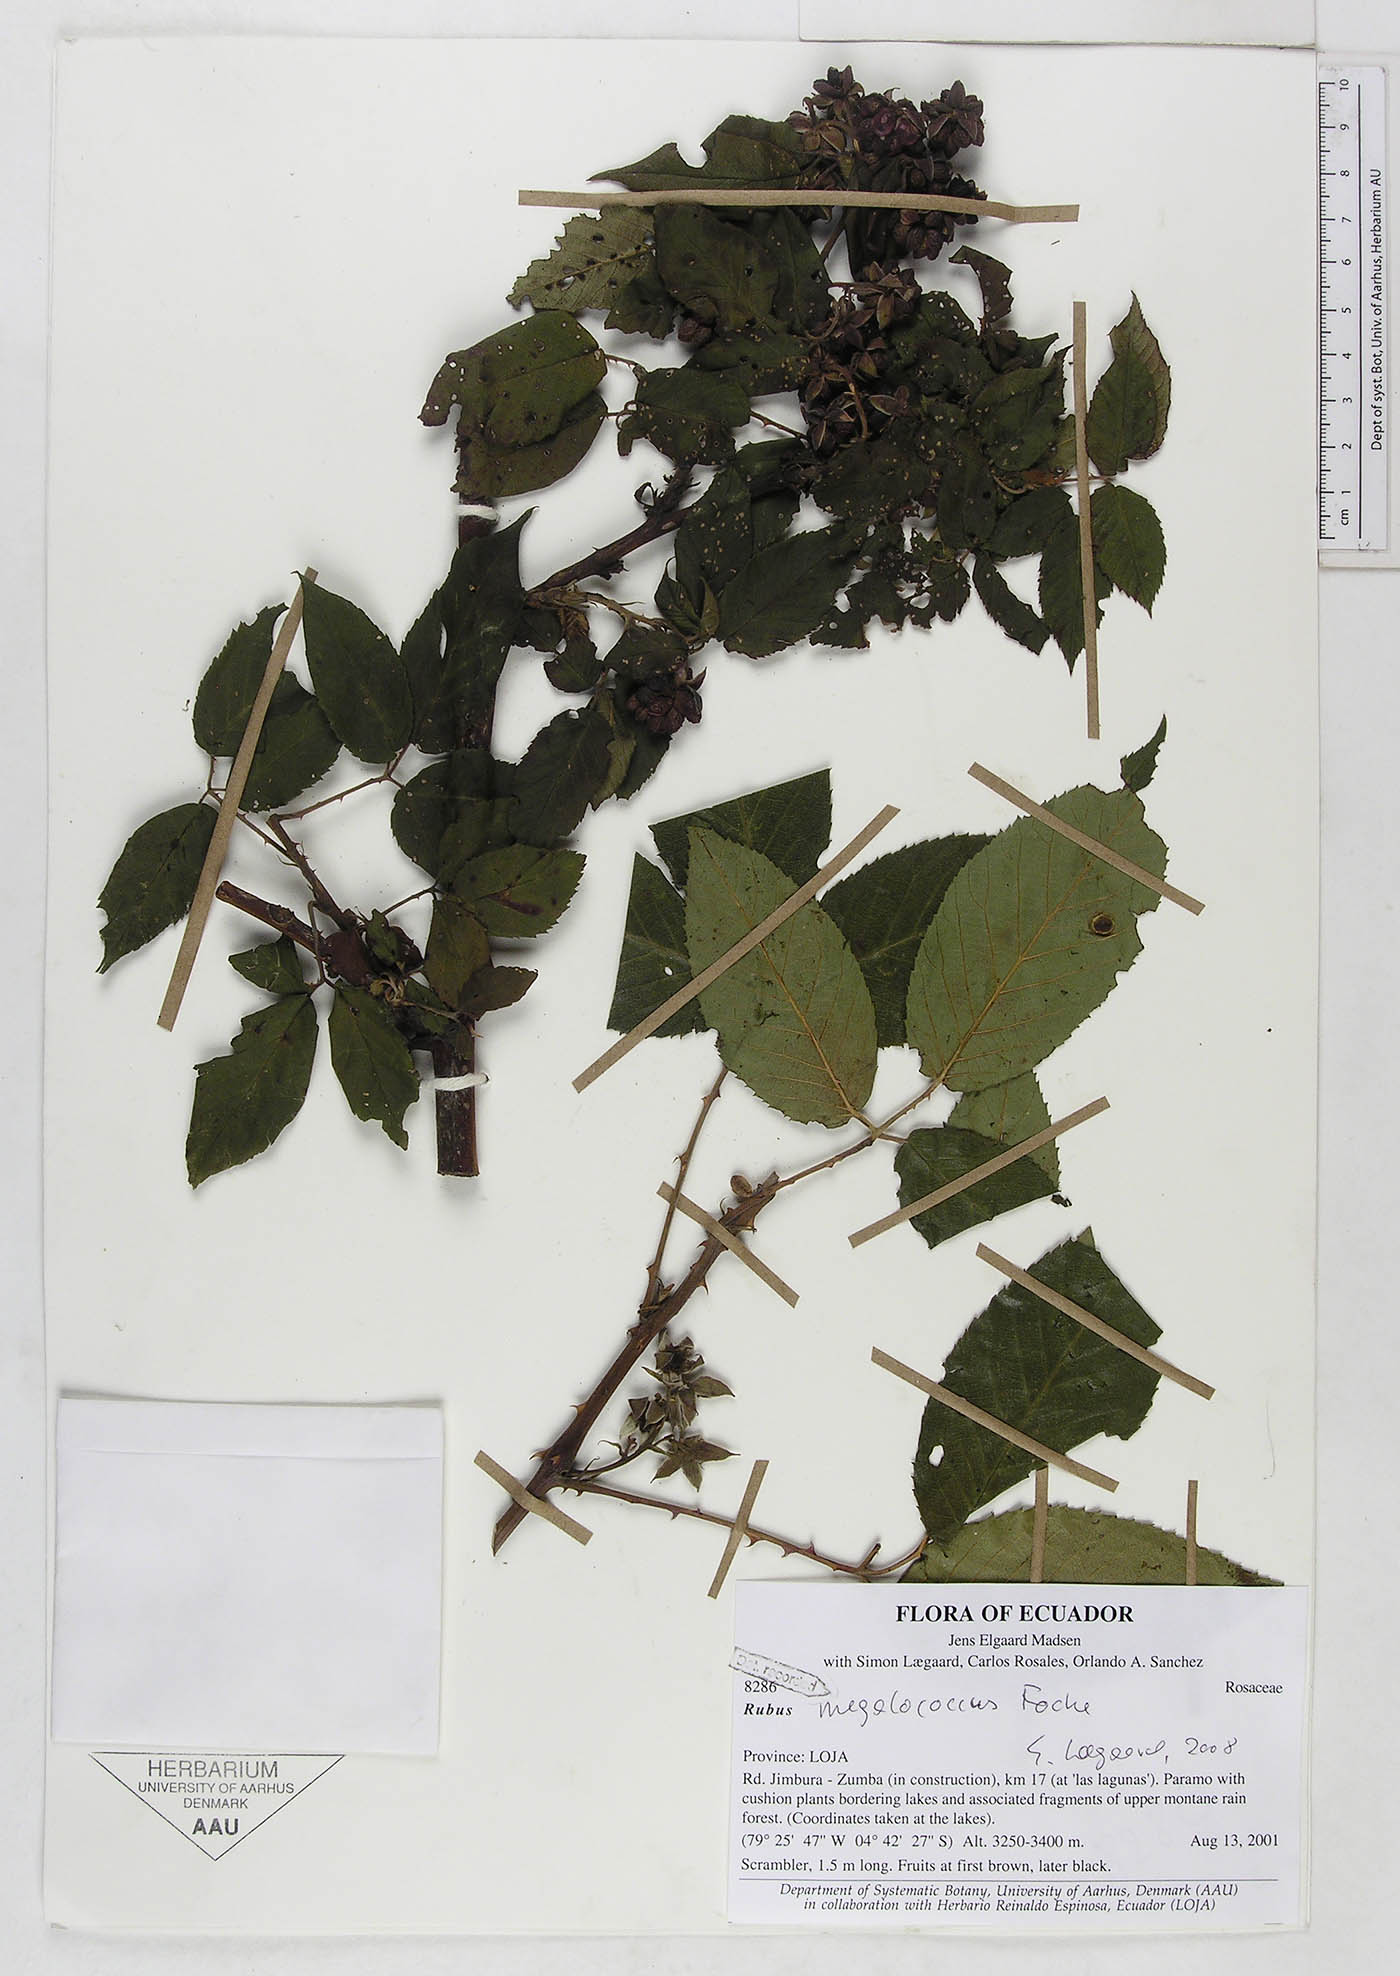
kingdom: Plantae
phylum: Tracheophyta
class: Magnoliopsida
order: Rosales
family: Rosaceae
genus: Rubus
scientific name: Rubus megalococcus
